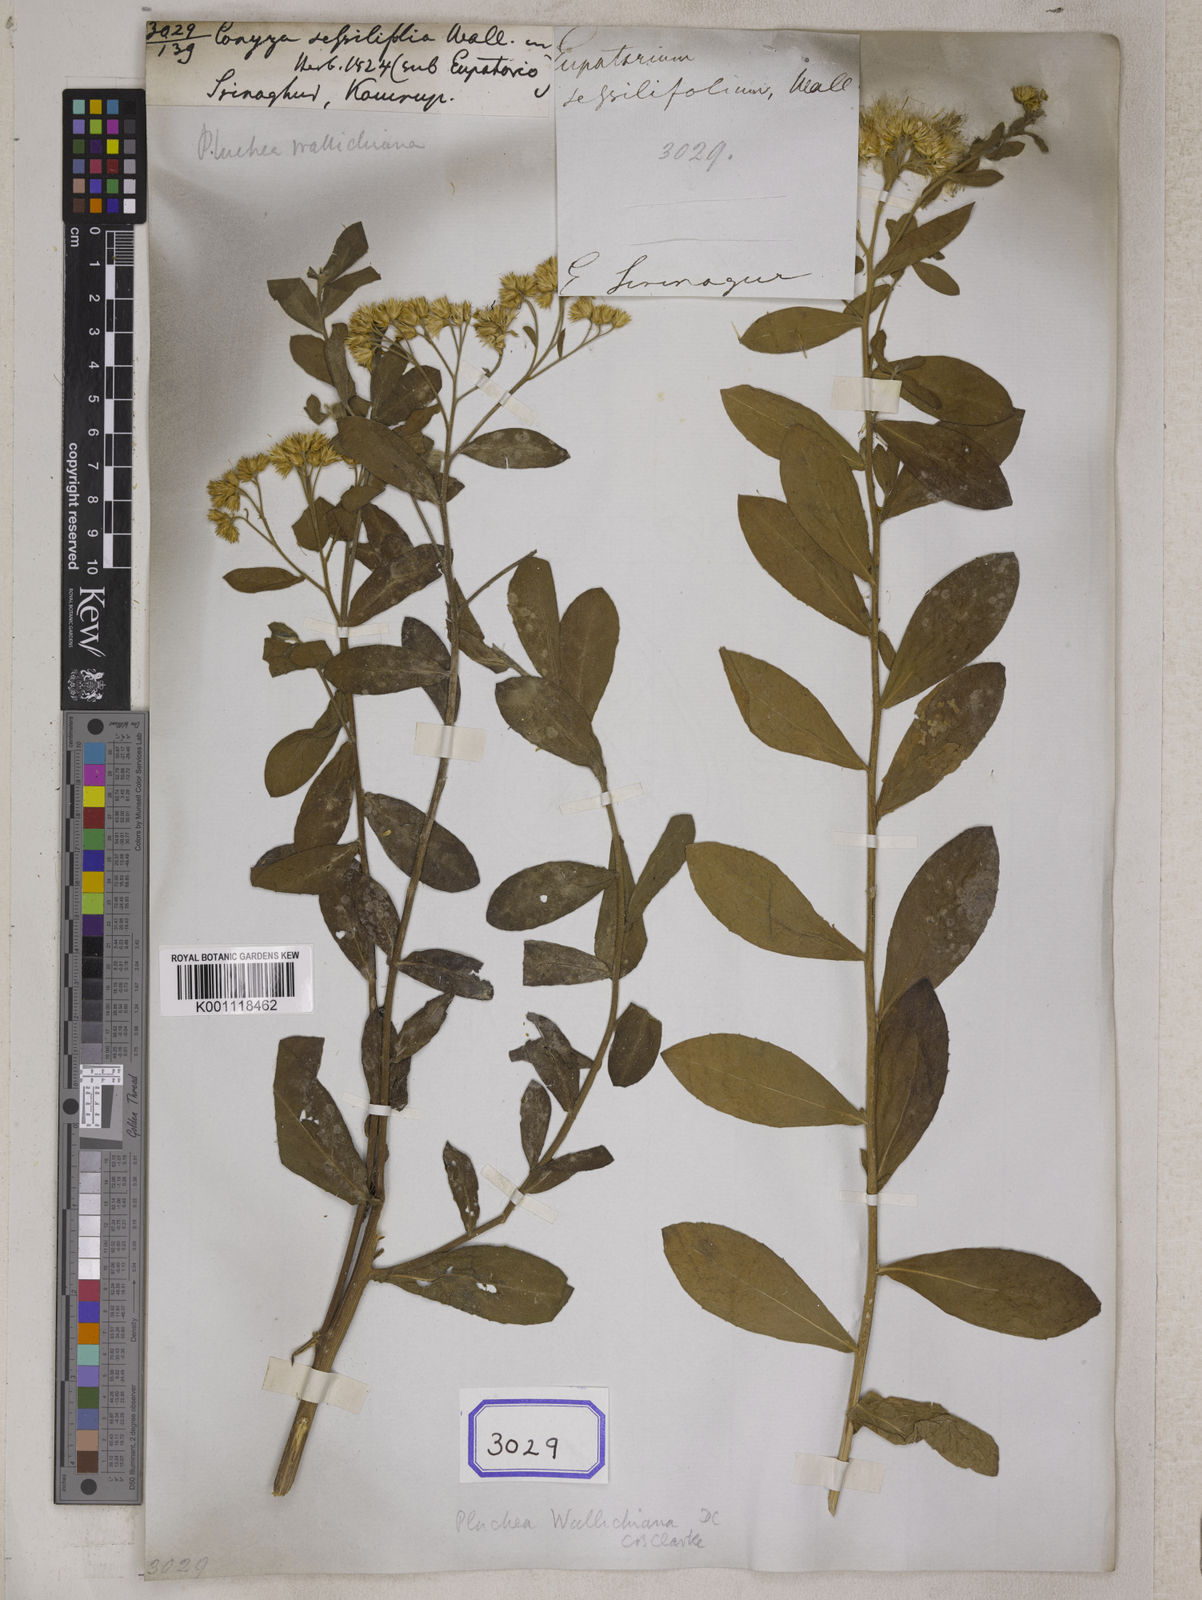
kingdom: Plantae
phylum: Tracheophyta
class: Magnoliopsida
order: Asterales
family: Asteraceae
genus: Pluchea
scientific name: Pluchea wallichiana
